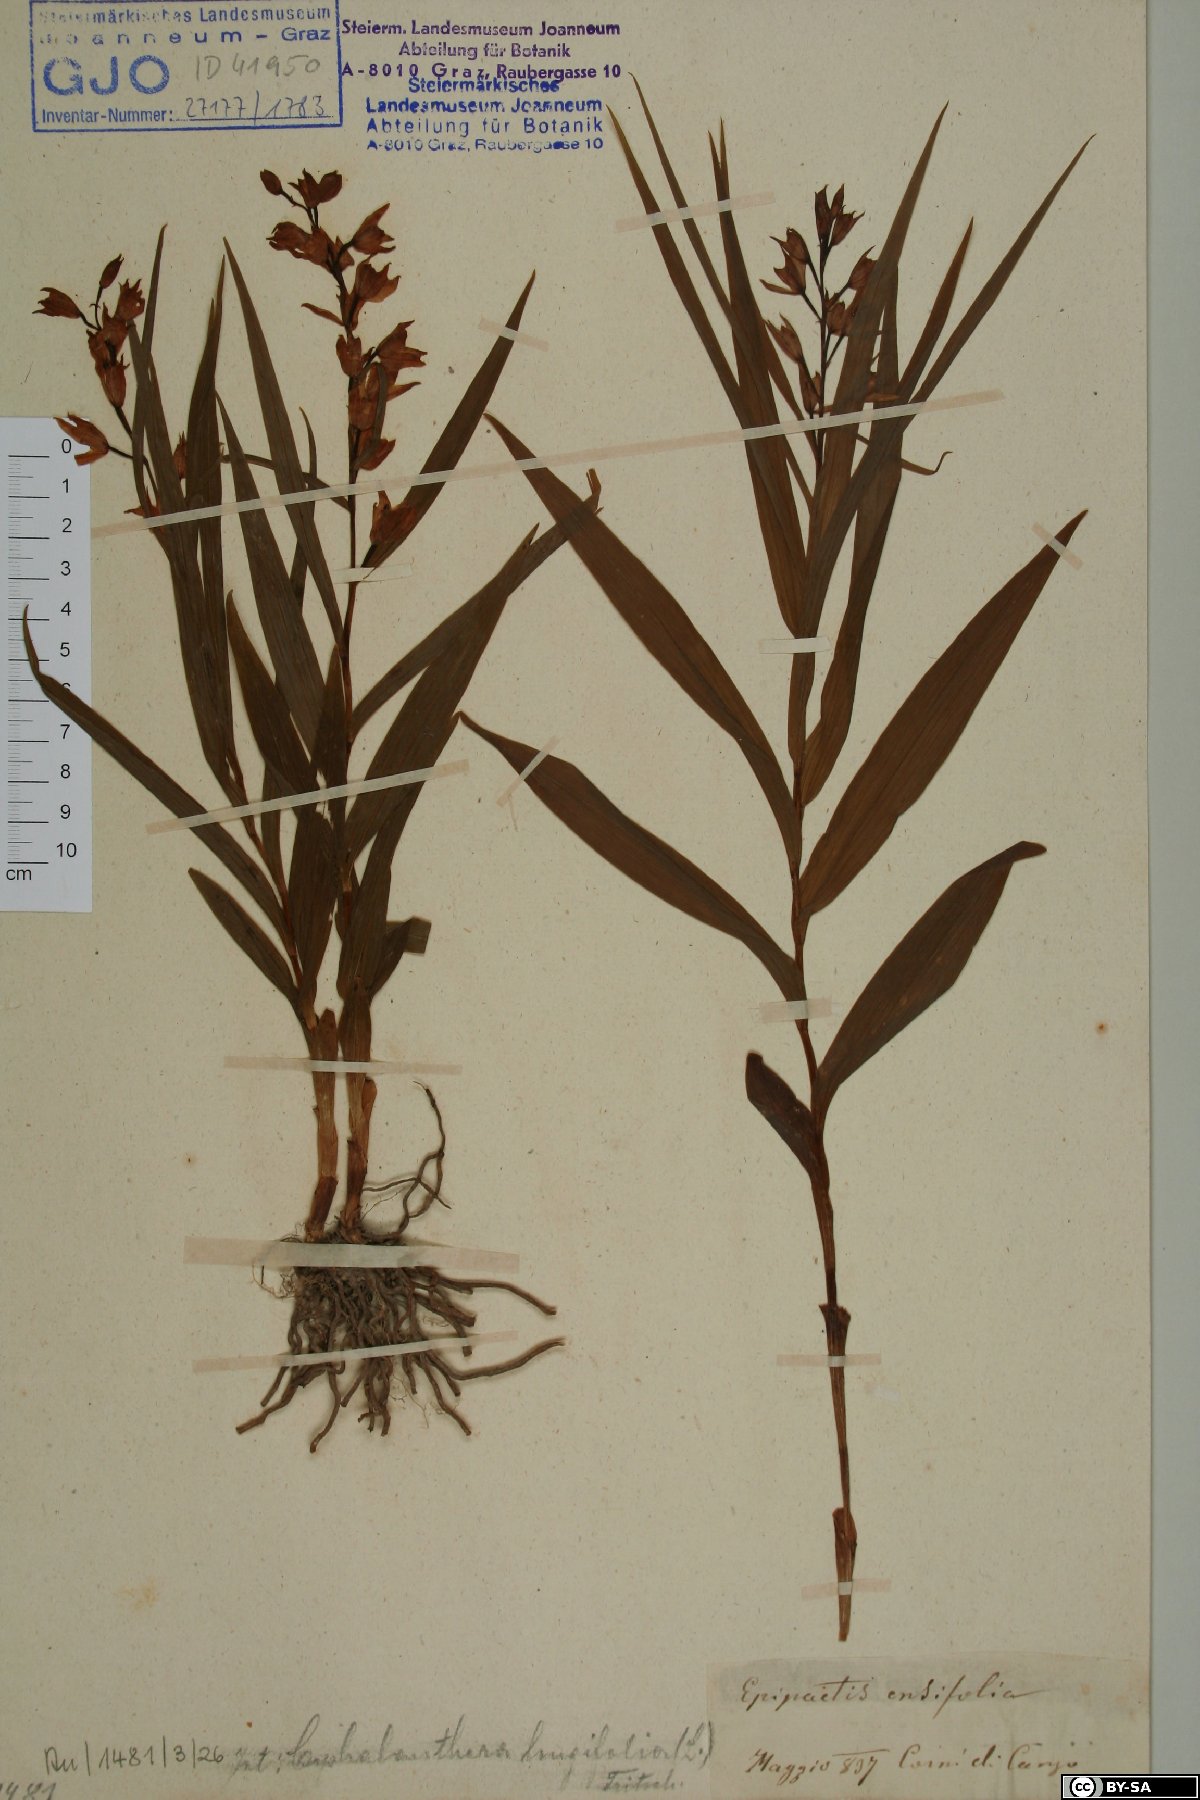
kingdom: Plantae
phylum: Tracheophyta
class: Liliopsida
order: Asparagales
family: Orchidaceae
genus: Cephalanthera
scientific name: Cephalanthera longifolia
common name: Narrow-leaved helleborine
